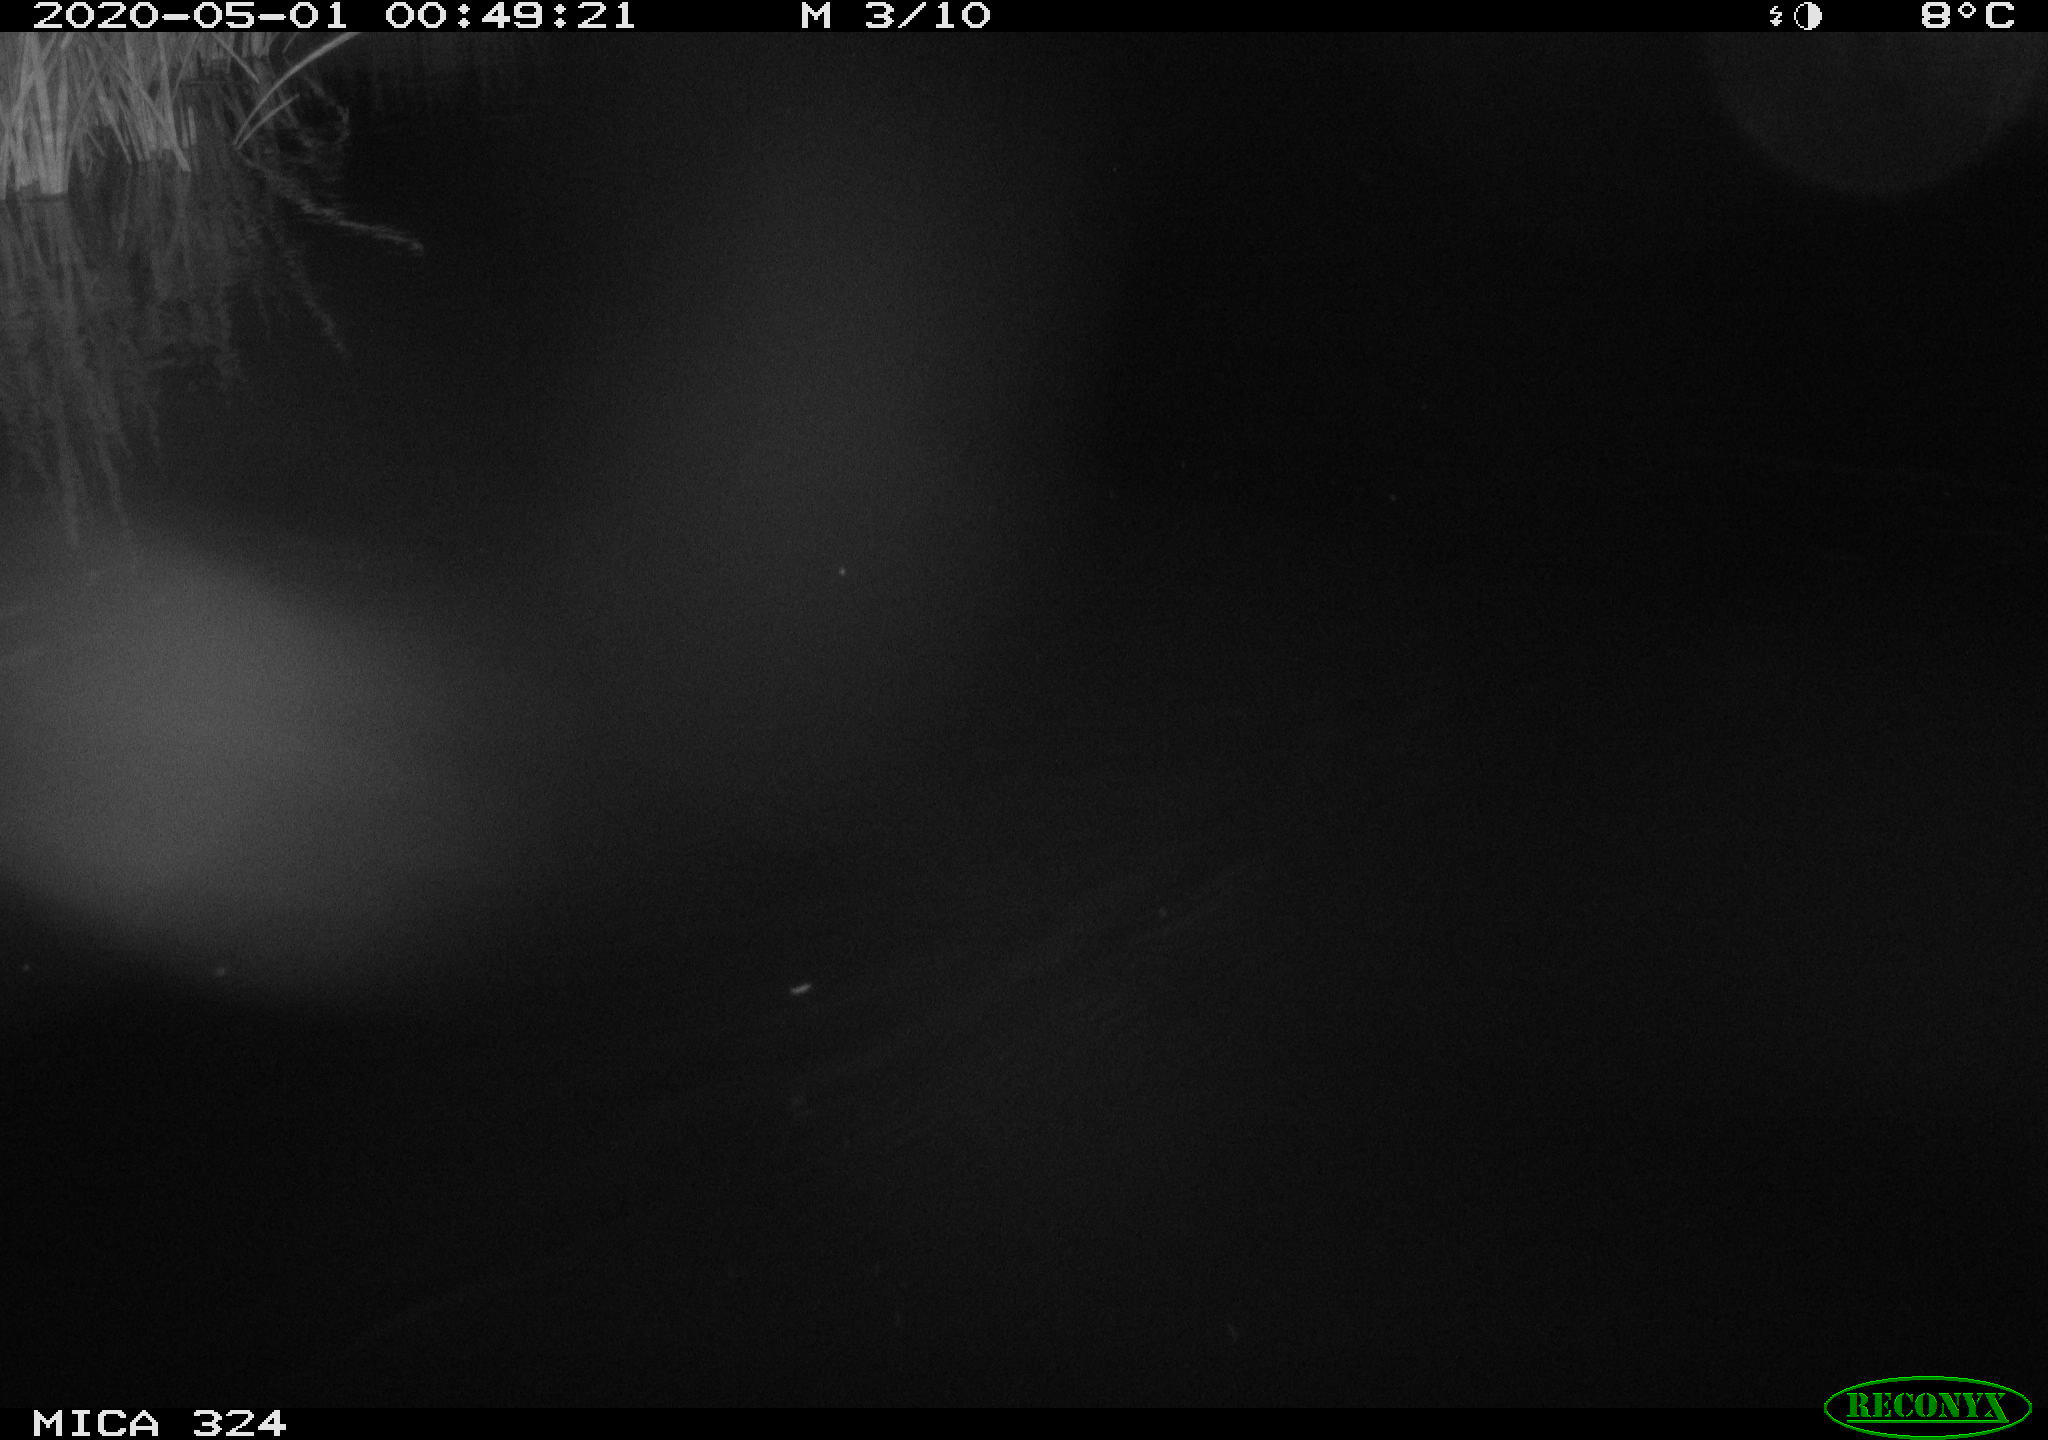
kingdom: Animalia
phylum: Chordata
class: Mammalia
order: Rodentia
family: Muridae
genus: Rattus
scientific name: Rattus norvegicus
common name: Brown rat
